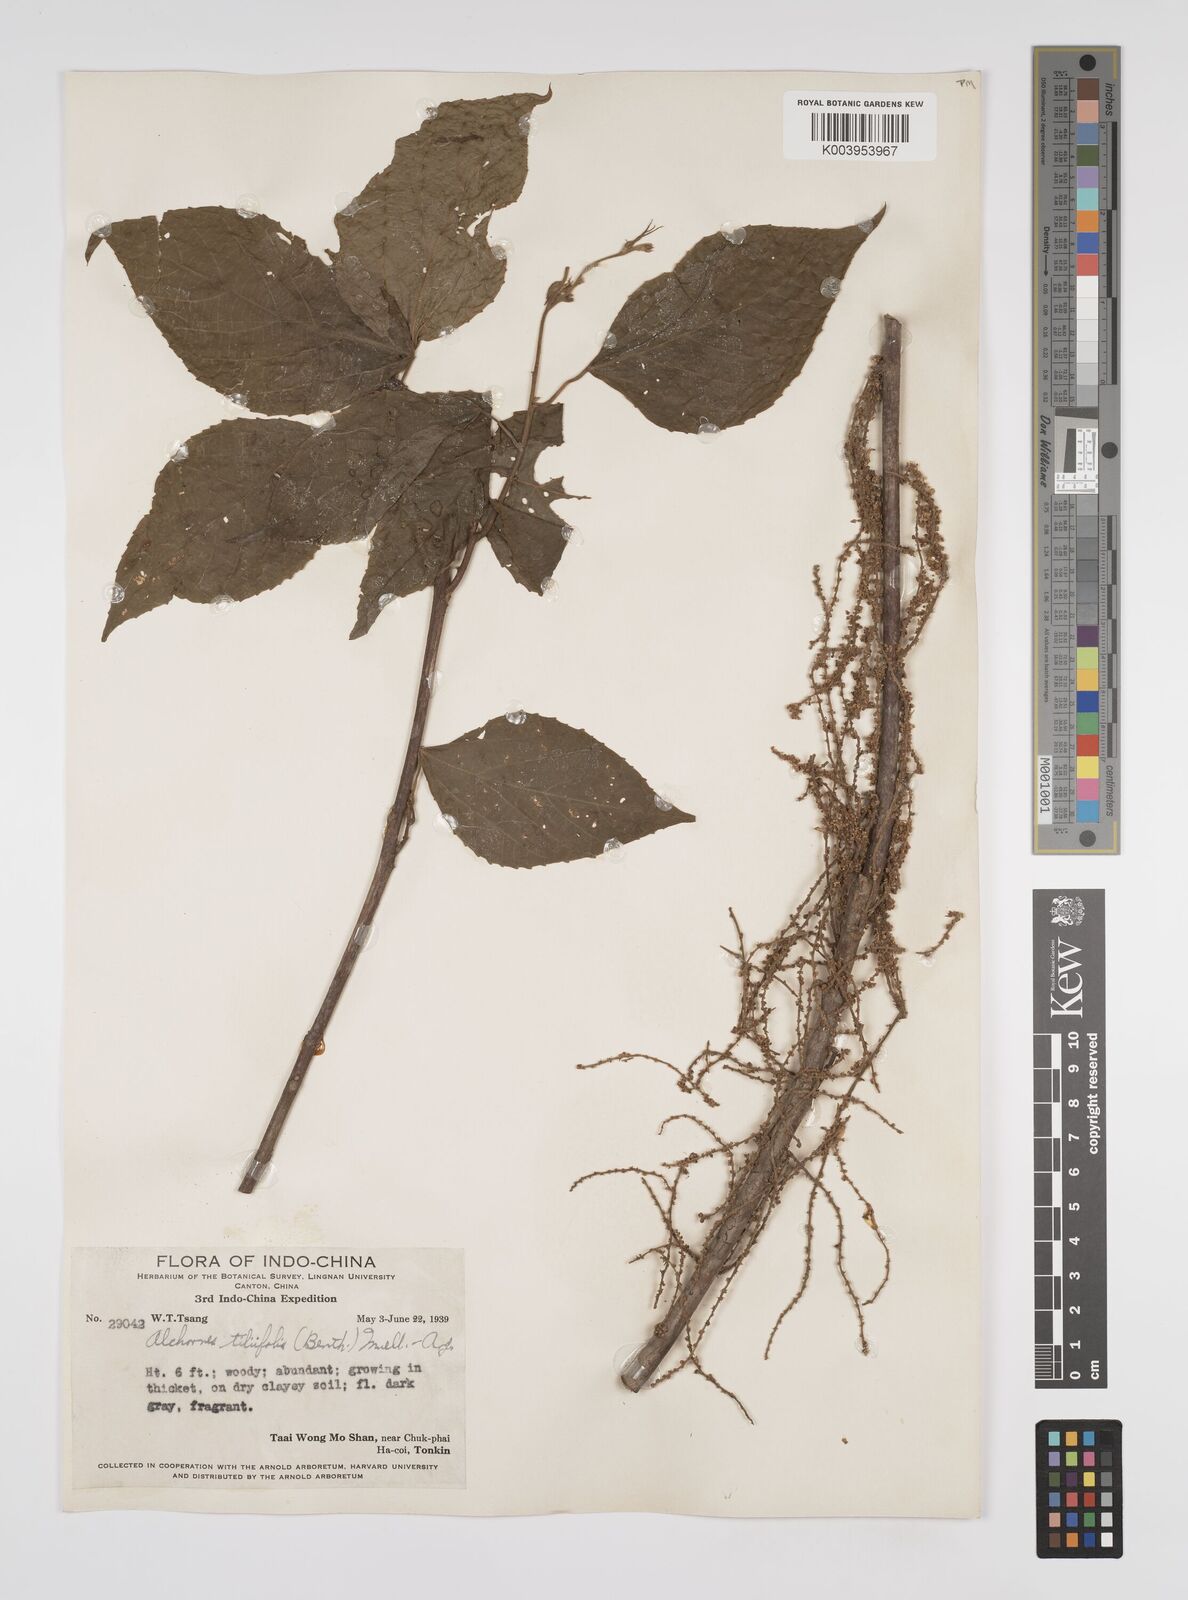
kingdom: Plantae
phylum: Tracheophyta
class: Magnoliopsida
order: Malpighiales
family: Euphorbiaceae
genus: Alchornea
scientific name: Alchornea tiliifolia
